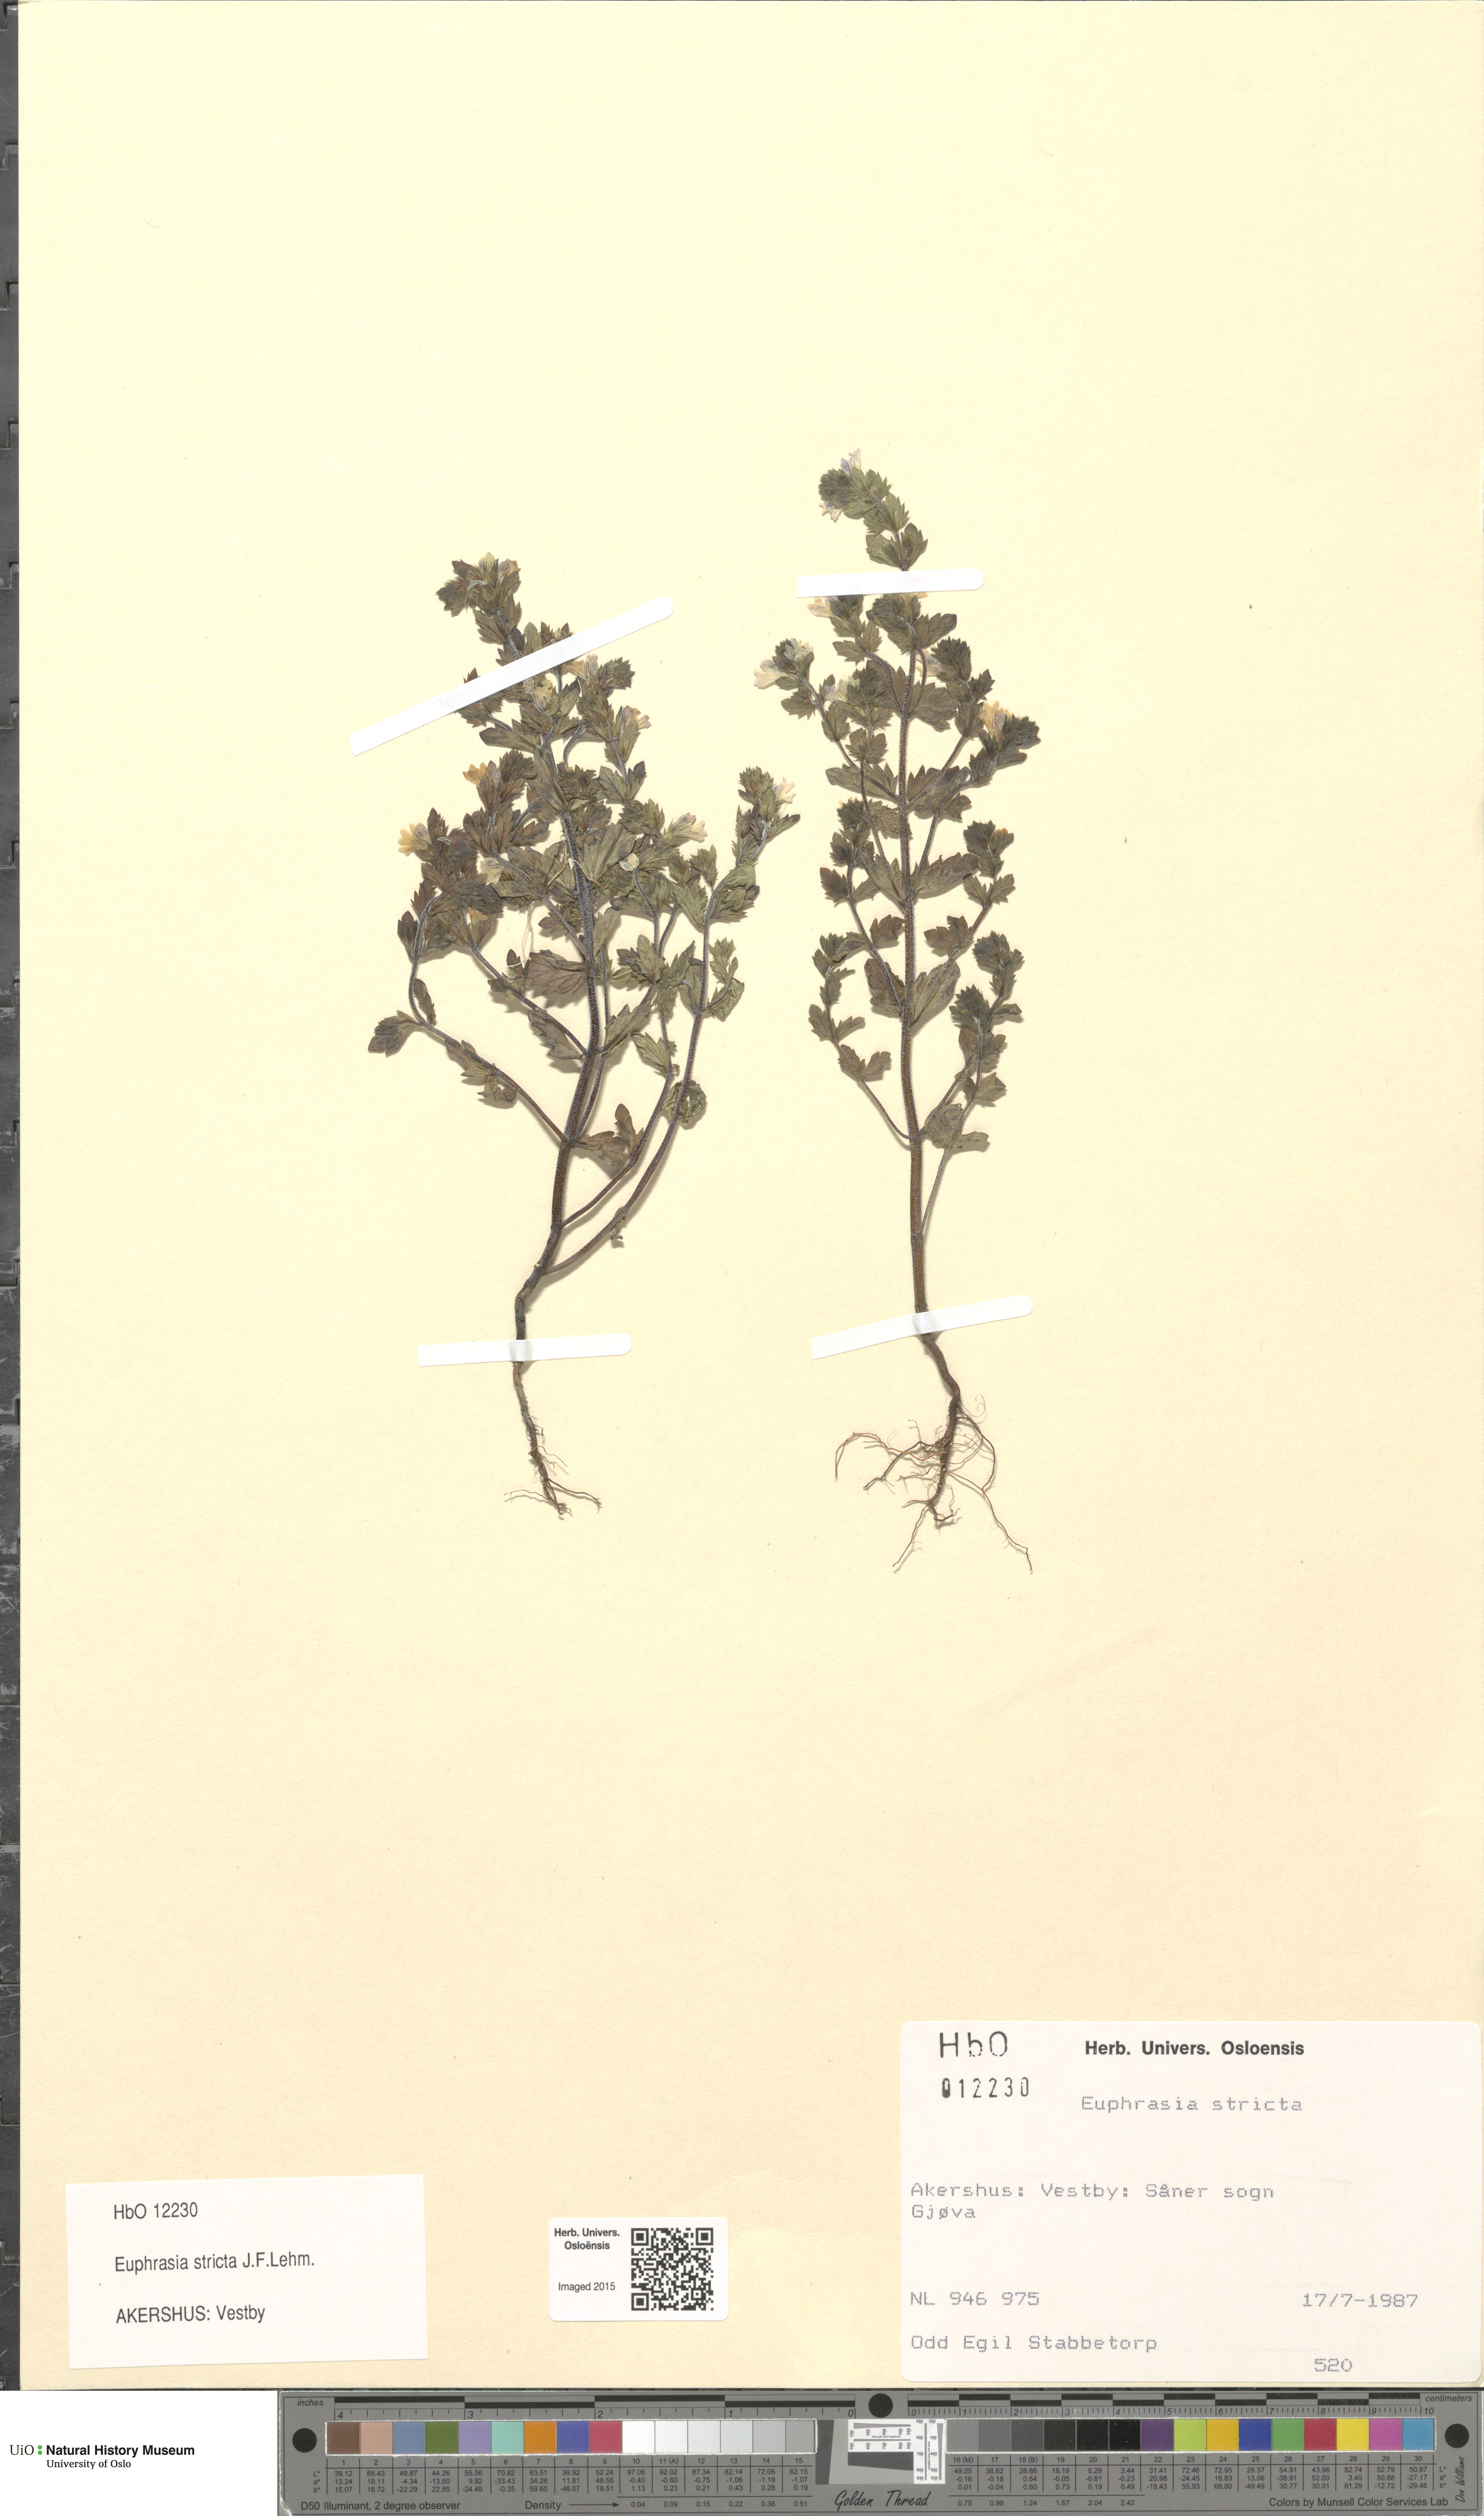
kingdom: Plantae
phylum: Tracheophyta
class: Magnoliopsida
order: Lamiales
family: Orobanchaceae
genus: Euphrasia
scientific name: Euphrasia stricta
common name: Drug eyebright
